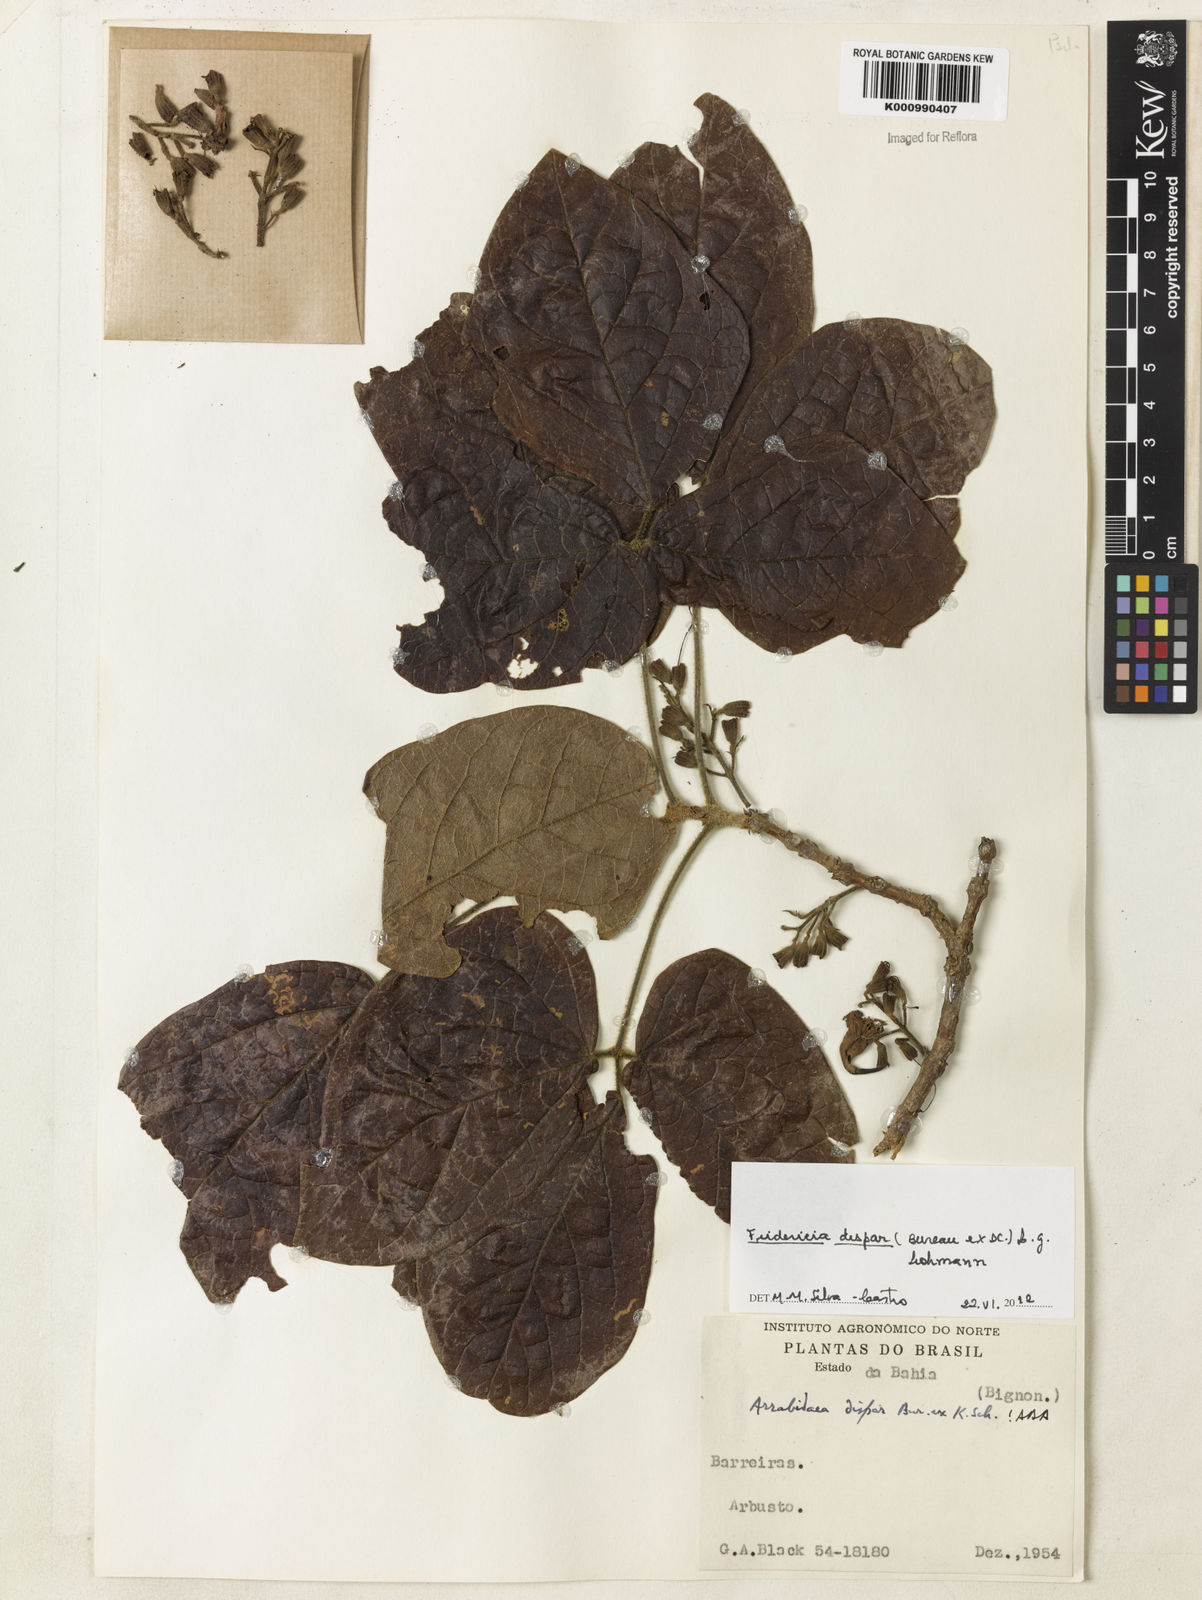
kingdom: Plantae
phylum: Tracheophyta
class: Magnoliopsida
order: Lamiales
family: Bignoniaceae
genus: Fridericia
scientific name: Fridericia dispar
